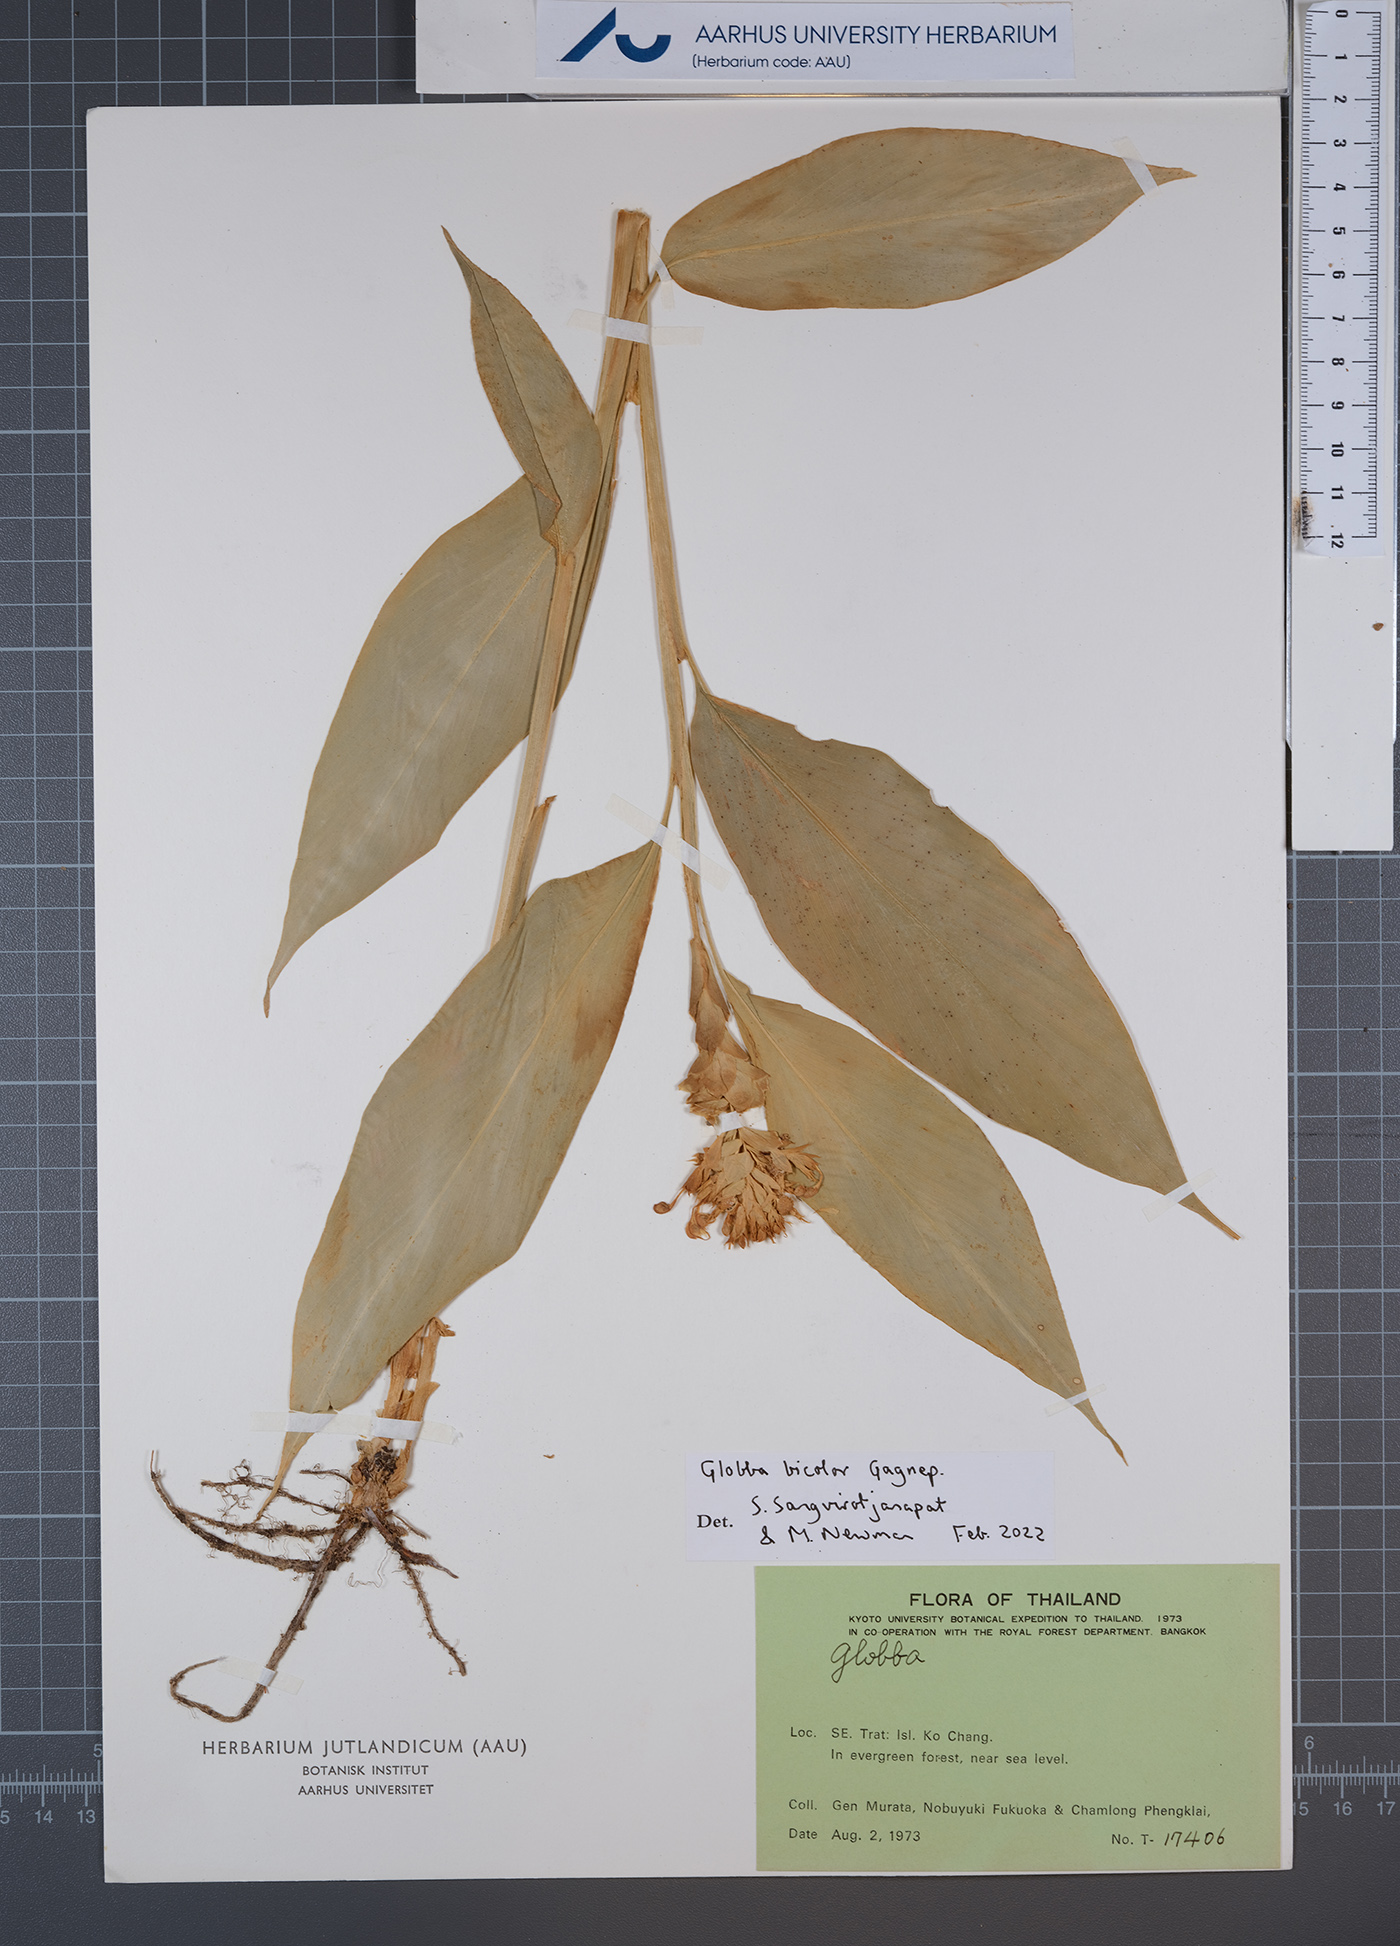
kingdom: Plantae
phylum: Tracheophyta
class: Liliopsida
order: Zingiberales
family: Zingiberaceae
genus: Globba
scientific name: Globba bicolor
